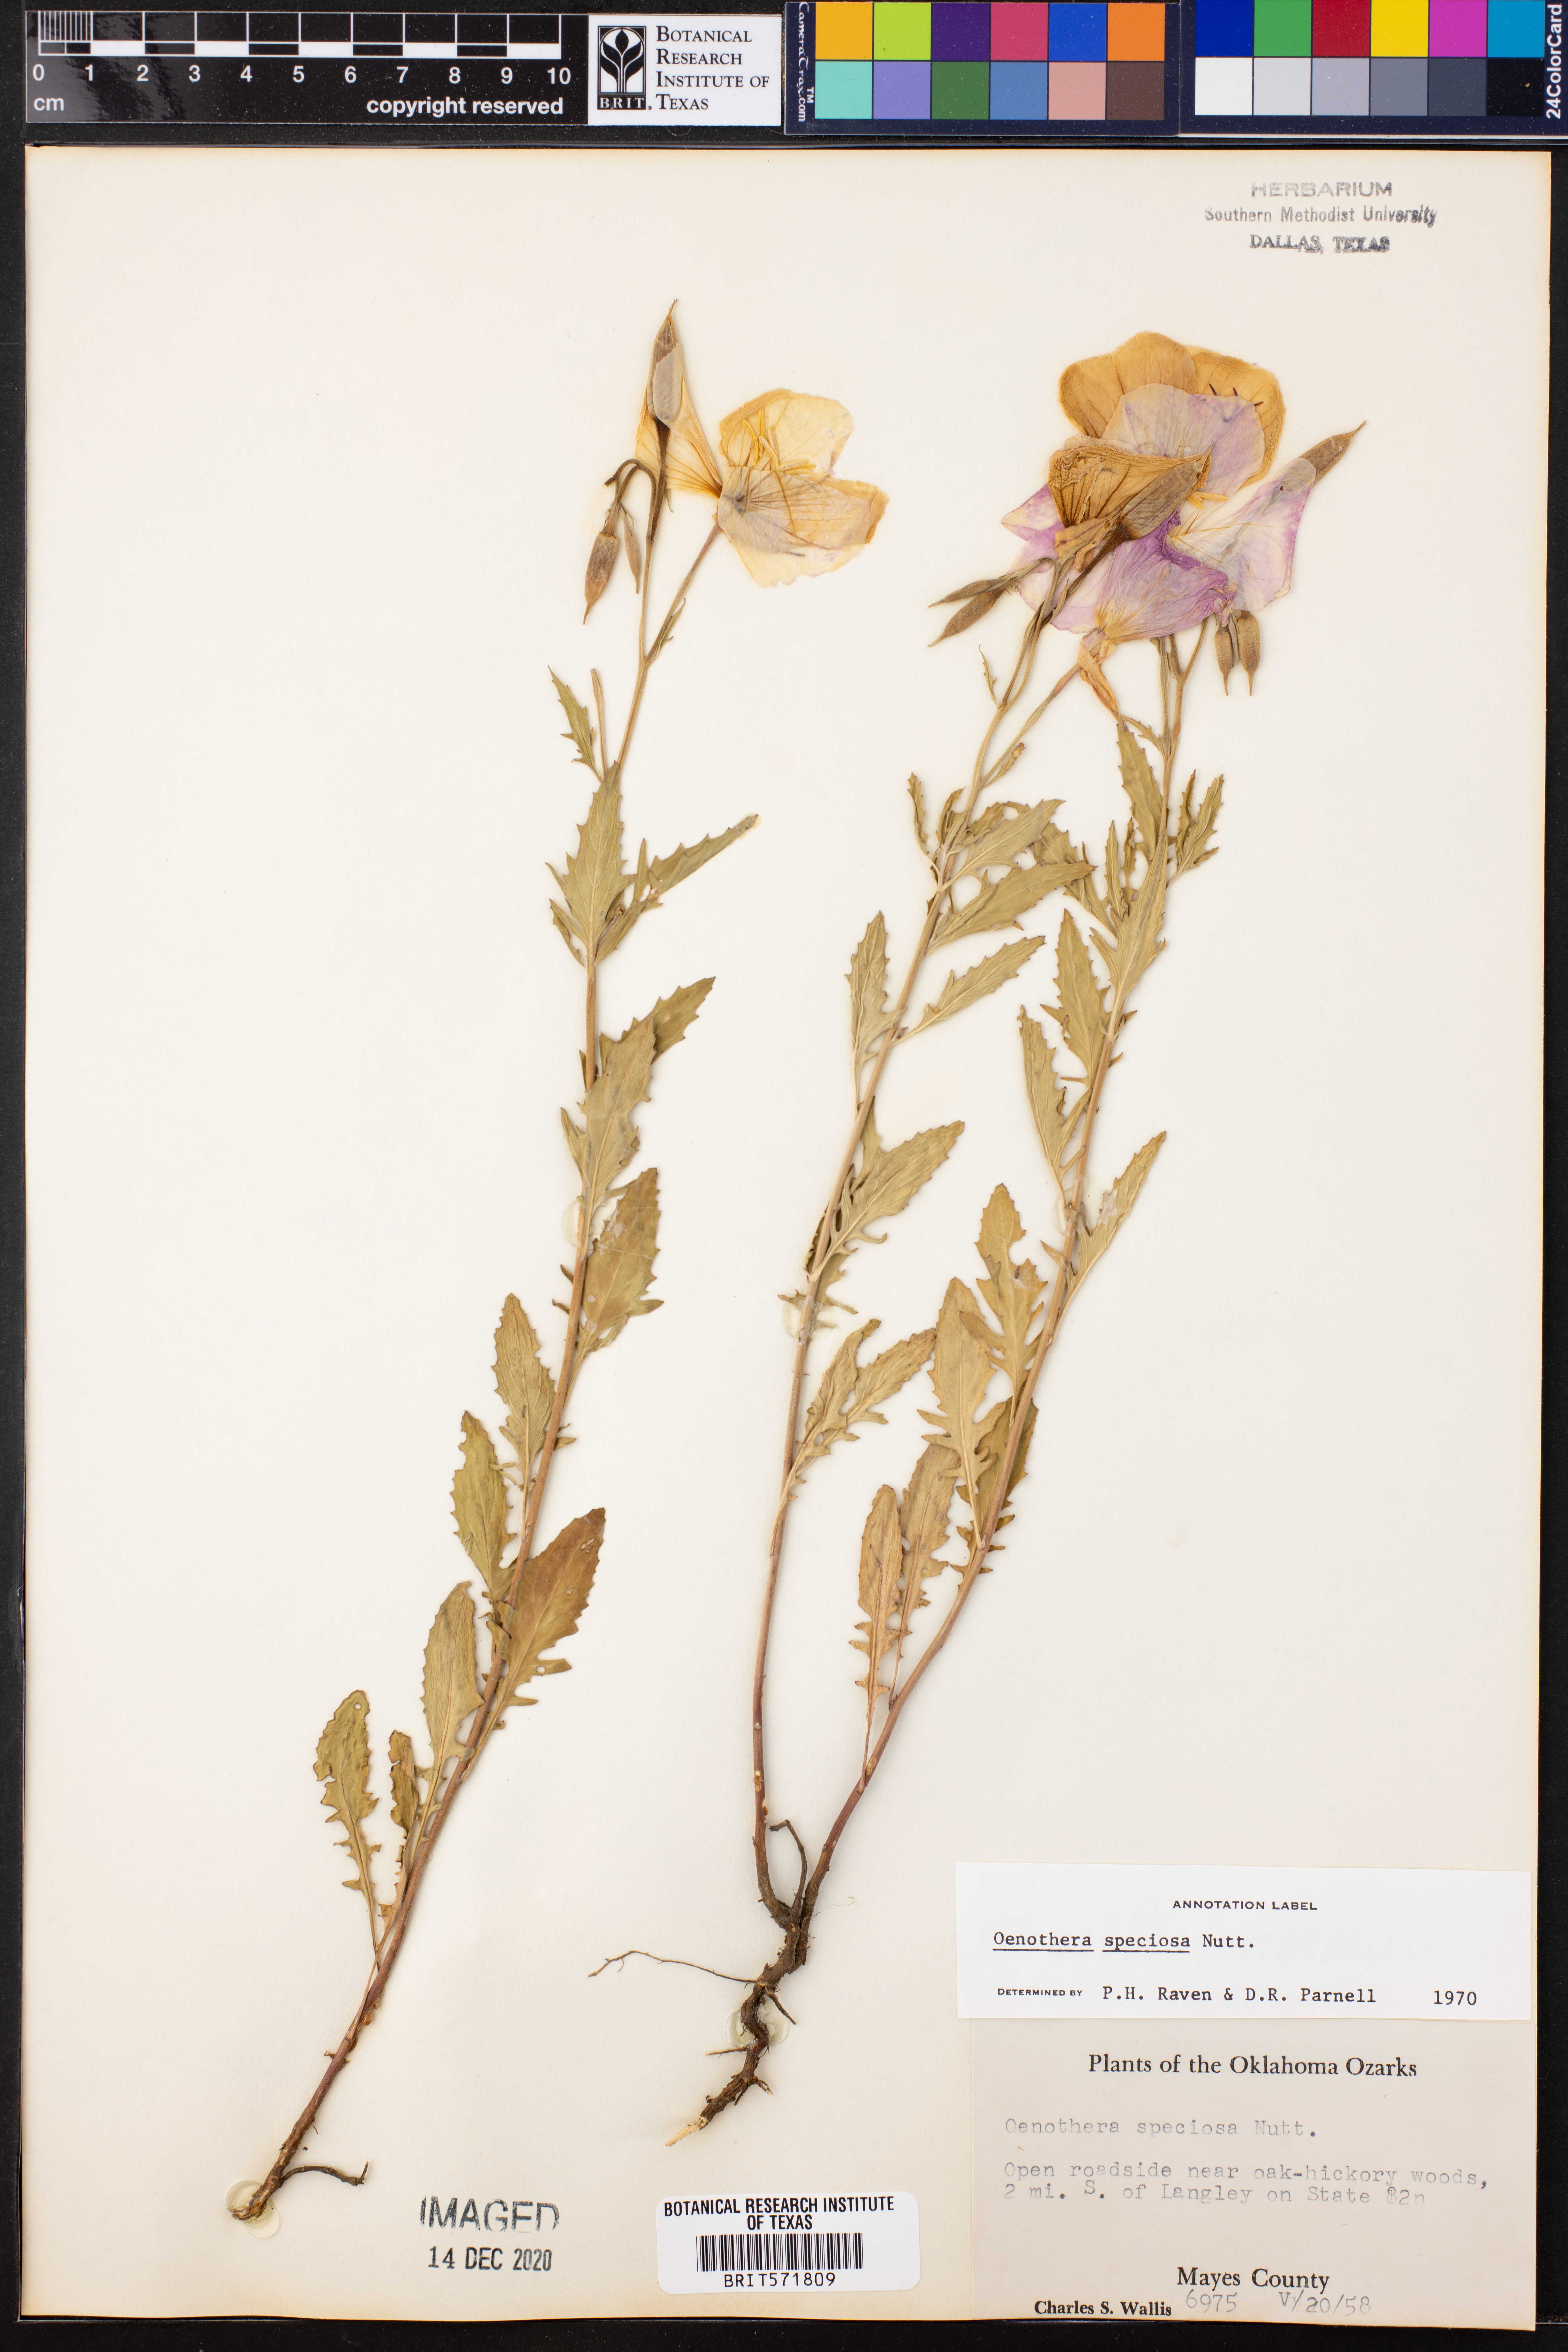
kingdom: Plantae
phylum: Tracheophyta
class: Magnoliopsida
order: Myrtales
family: Onagraceae
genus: Oenothera
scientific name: Oenothera speciosa
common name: White evening-primrose
